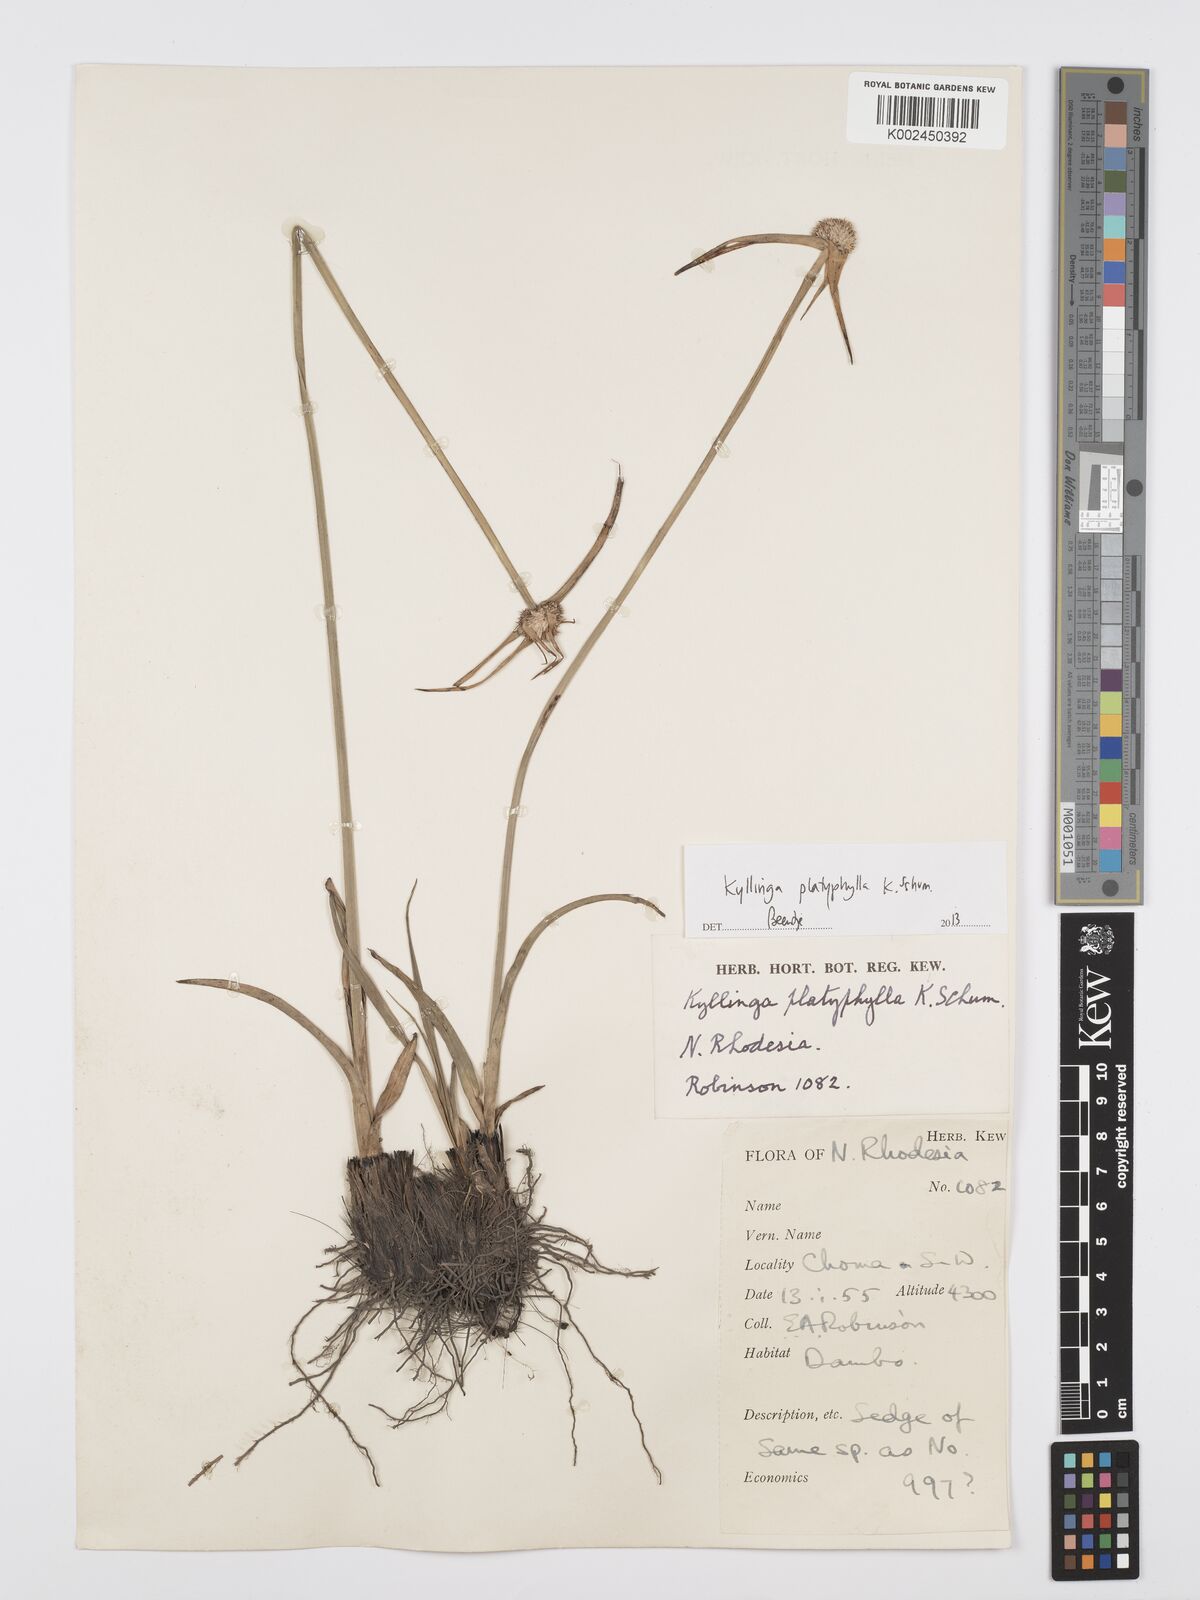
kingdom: Plantae
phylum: Tracheophyta
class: Liliopsida
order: Poales
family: Cyperaceae
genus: Cyperus
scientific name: Cyperus
